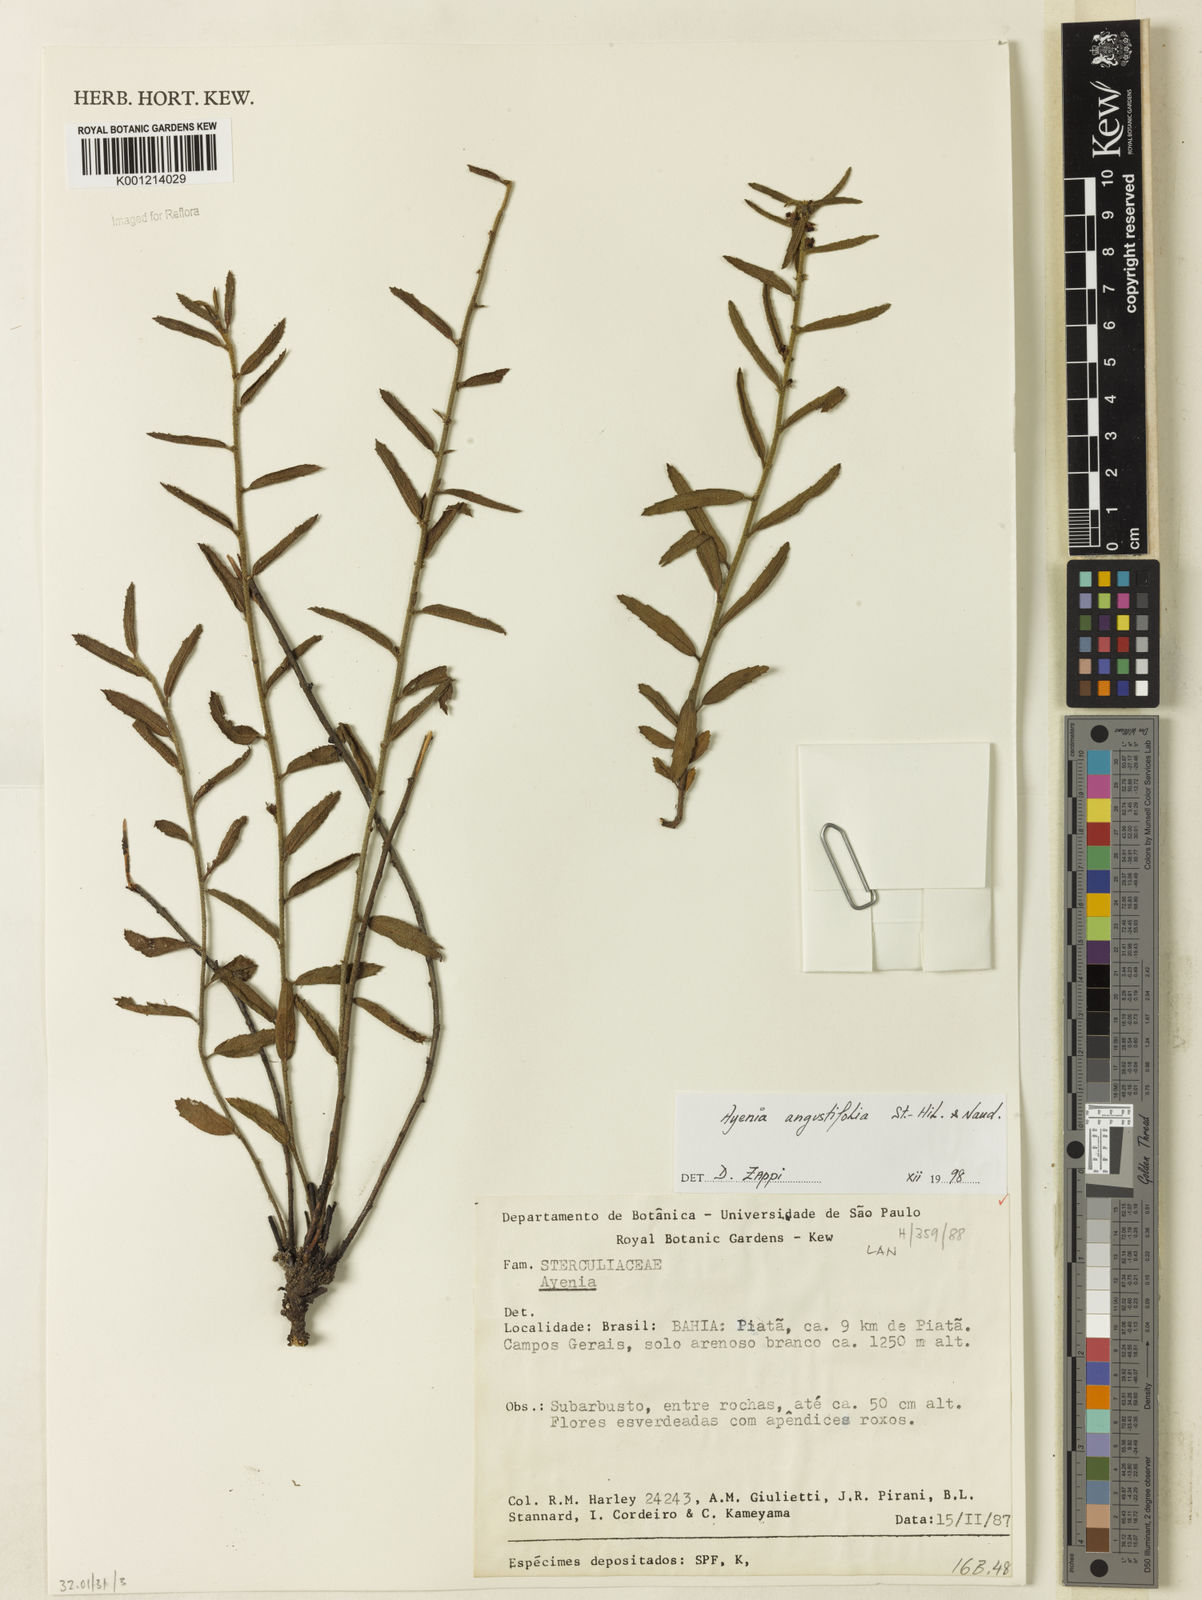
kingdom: Plantae
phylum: Tracheophyta
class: Magnoliopsida
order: Malvales
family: Malvaceae
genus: Ayenia
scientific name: Ayenia angustifolia
